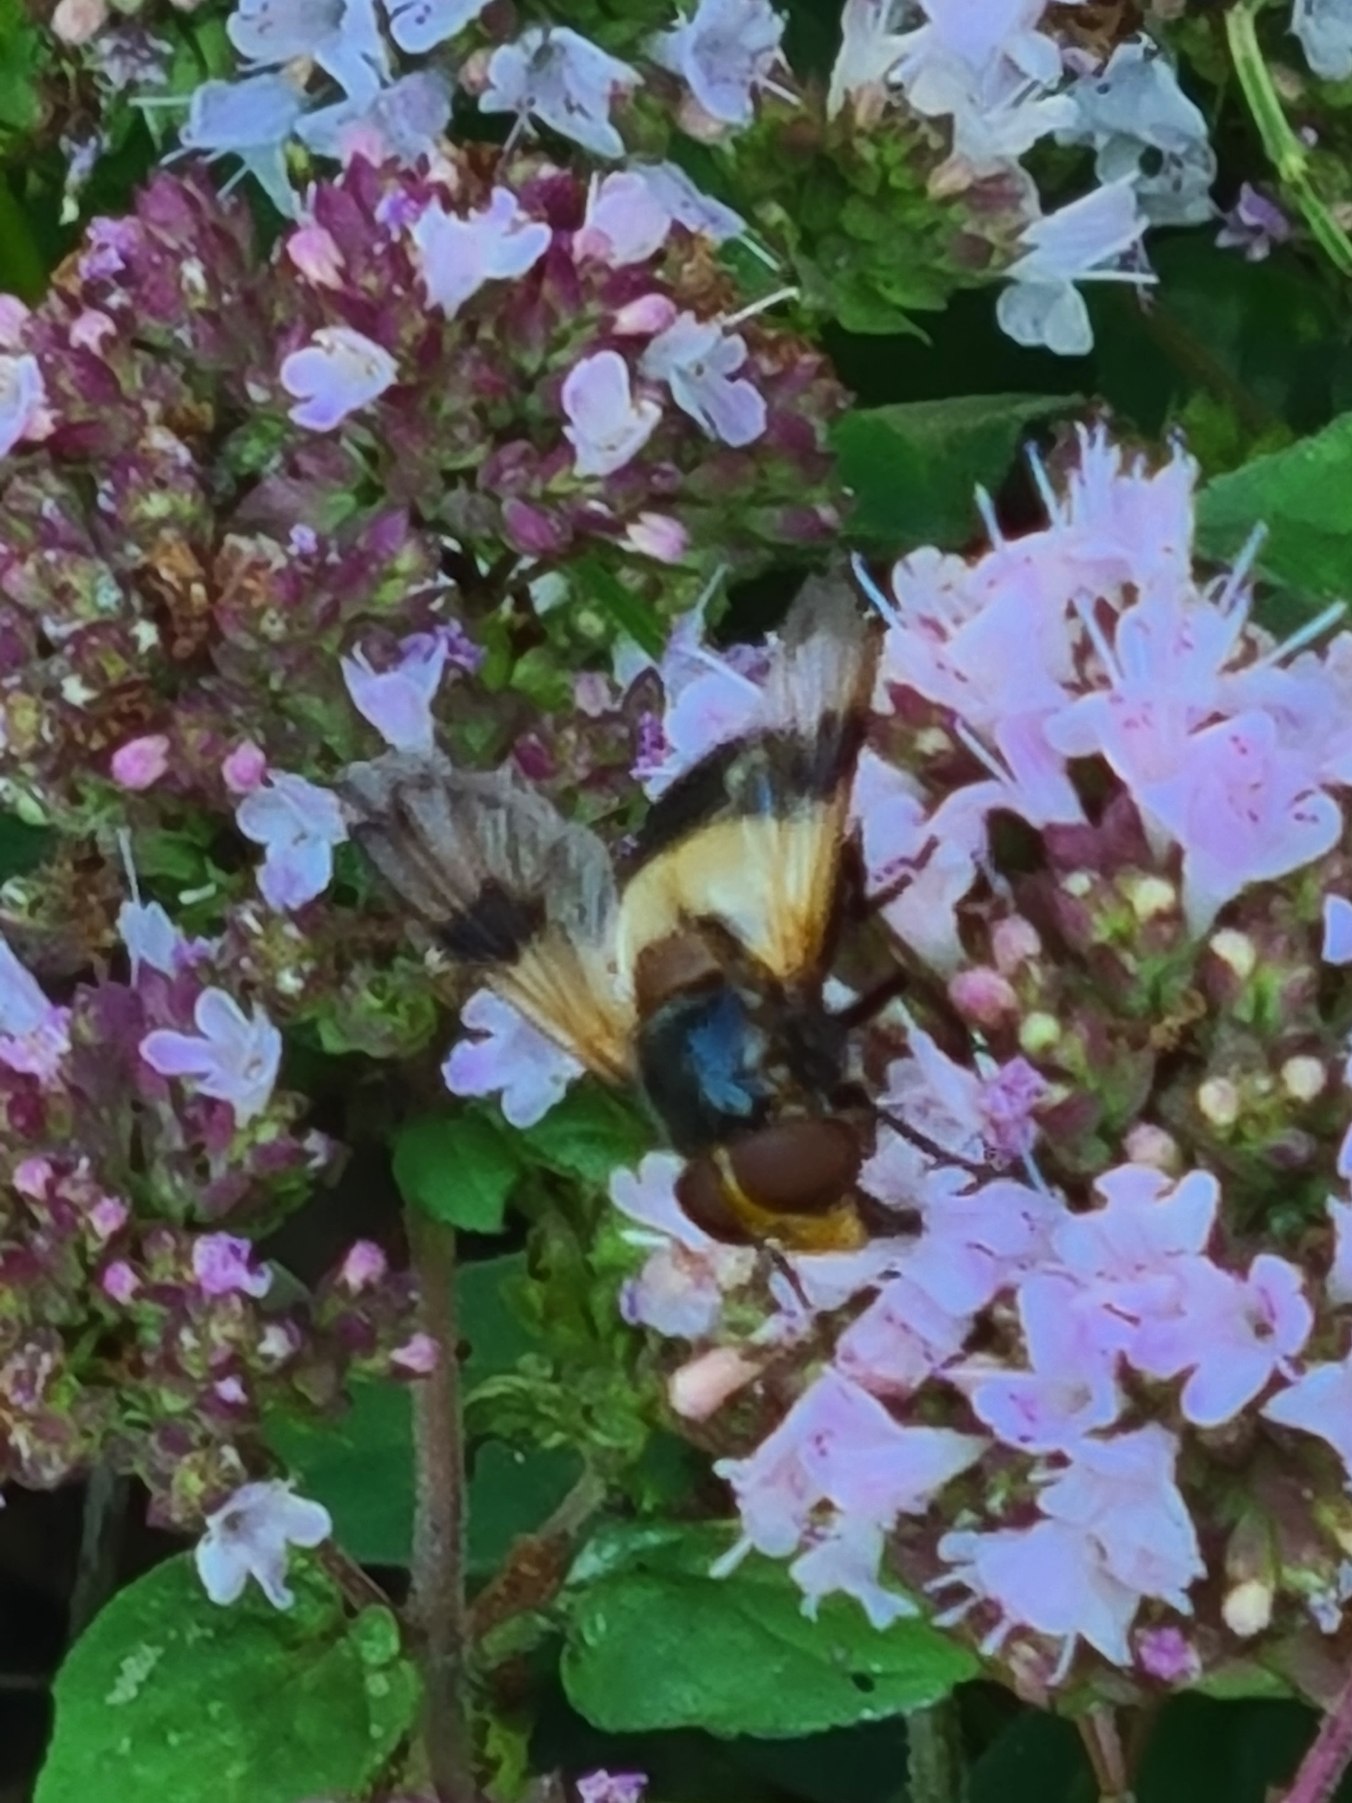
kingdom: Animalia
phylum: Arthropoda
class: Insecta
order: Diptera
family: Syrphidae
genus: Volucella
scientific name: Volucella pellucens
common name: Hvidbåndet humlesvirreflue
